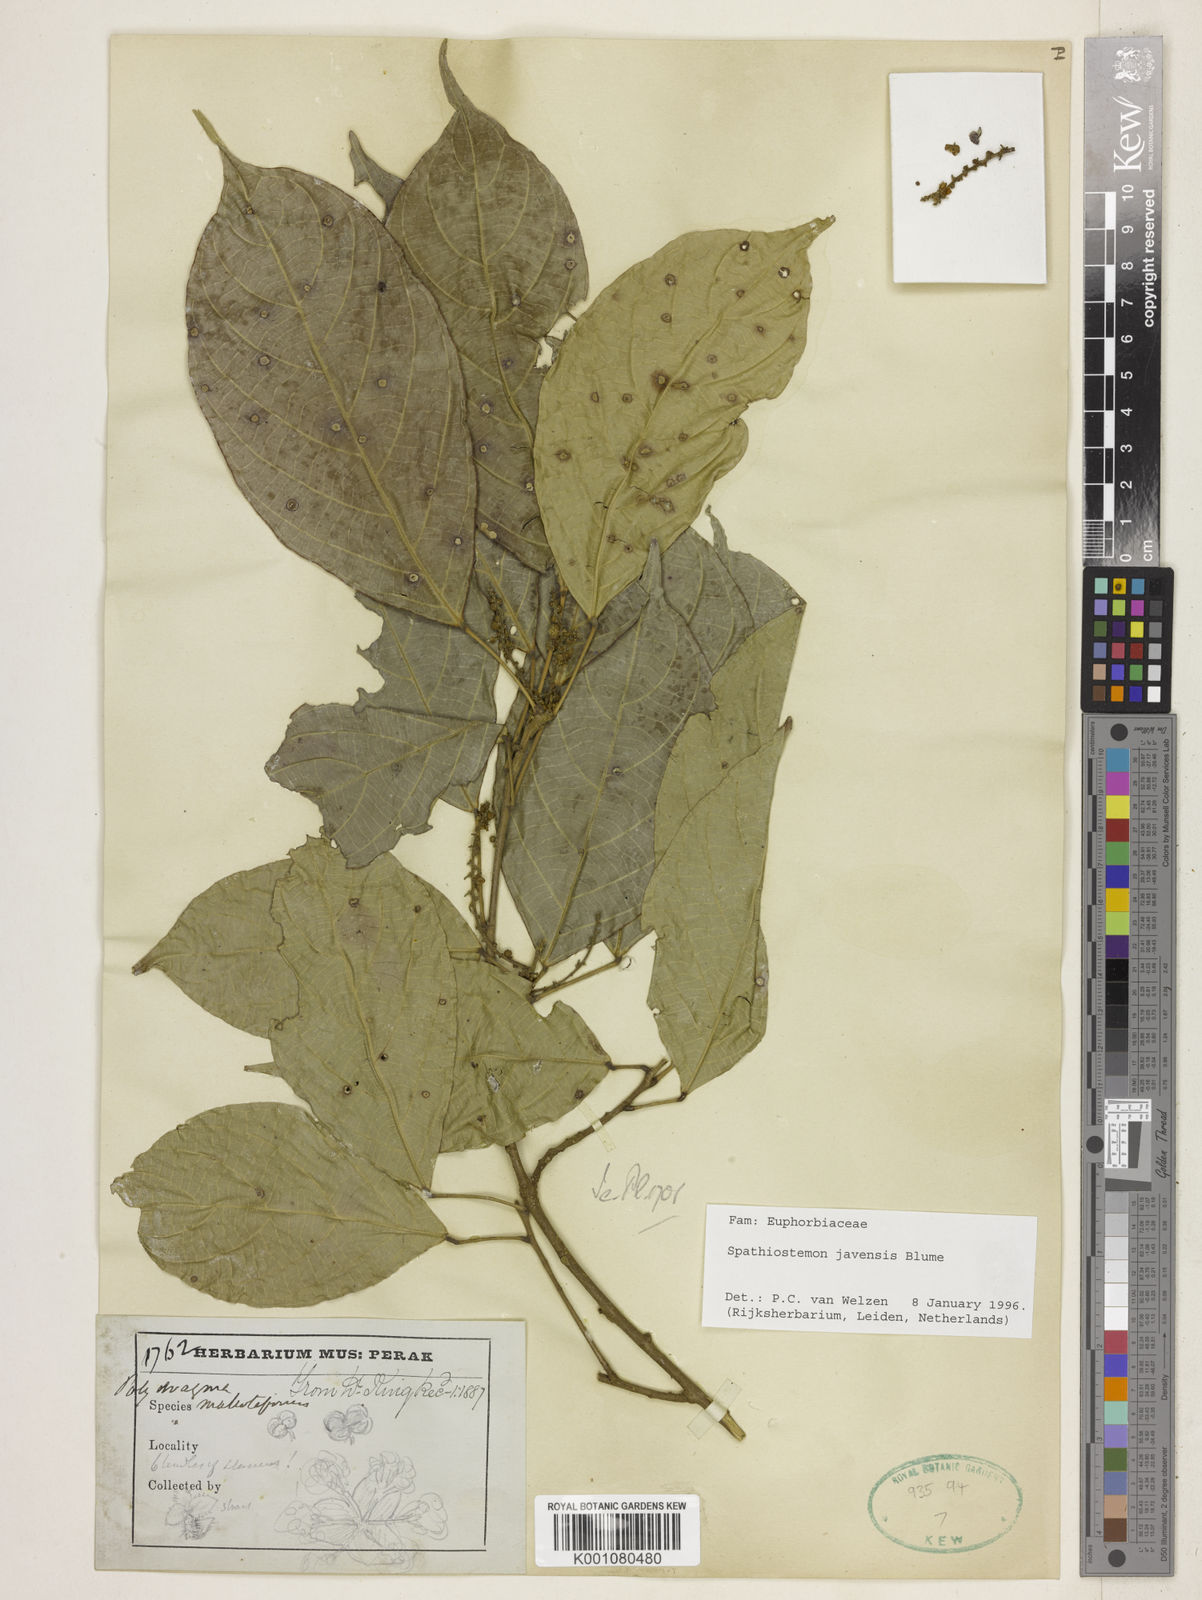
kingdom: Plantae
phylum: Tracheophyta
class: Magnoliopsida
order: Malpighiales
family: Euphorbiaceae
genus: Spathiostemon
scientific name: Spathiostemon javensis
